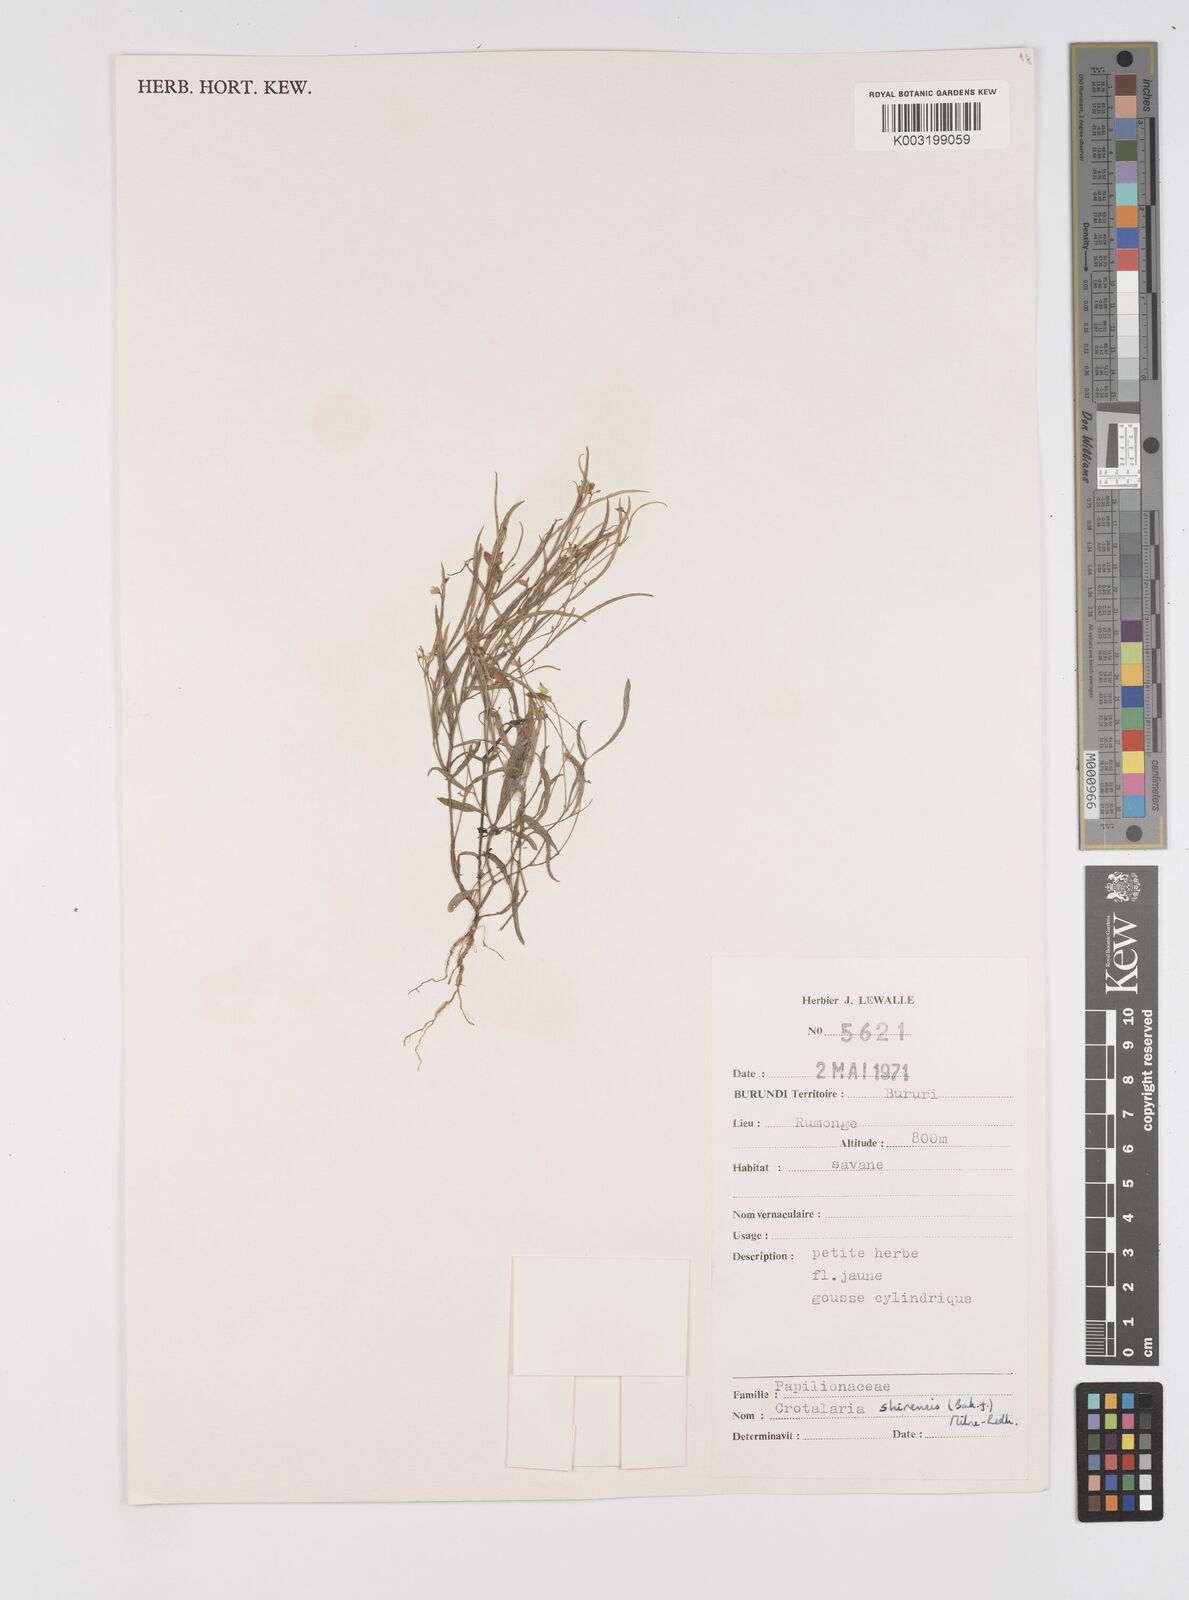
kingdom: Plantae
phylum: Tracheophyta
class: Magnoliopsida
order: Fabales
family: Fabaceae
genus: Crotalaria
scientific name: Crotalaria shirensis
